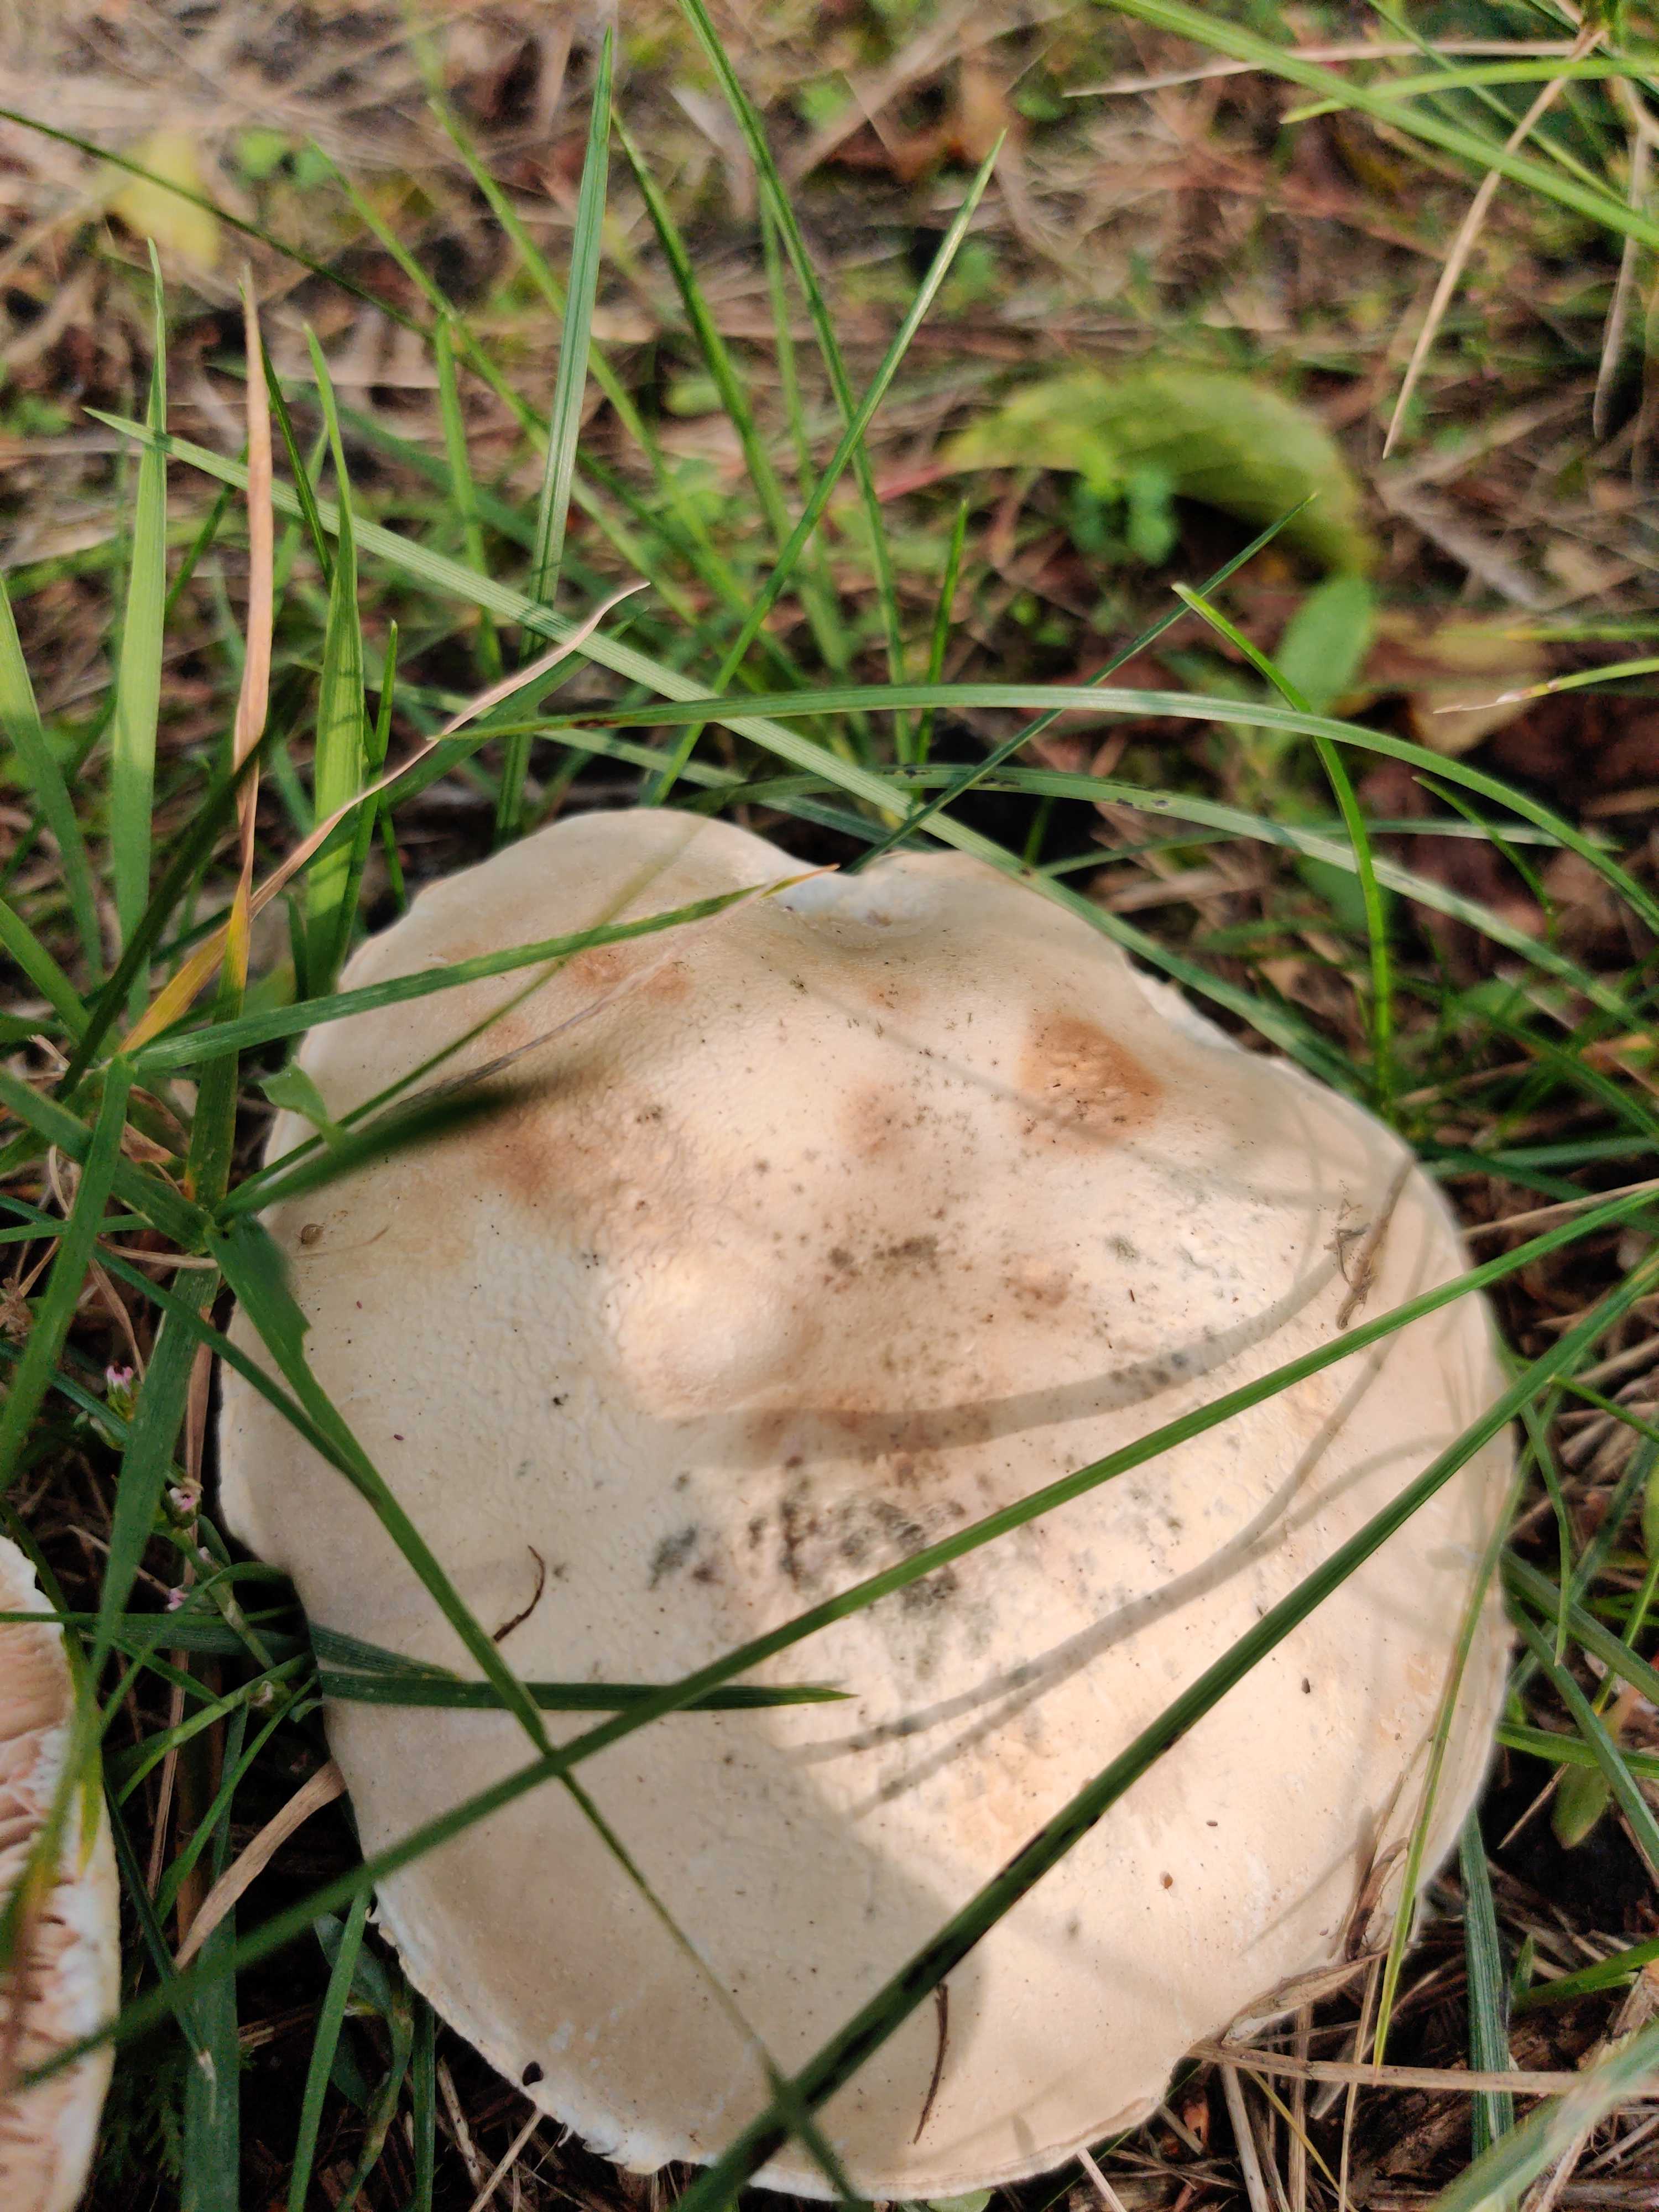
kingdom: Fungi
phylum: Basidiomycota
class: Agaricomycetes
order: Agaricales
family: Agaricaceae
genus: Leucoagaricus
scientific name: Leucoagaricus leucothites
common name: rosabladet silkehat
